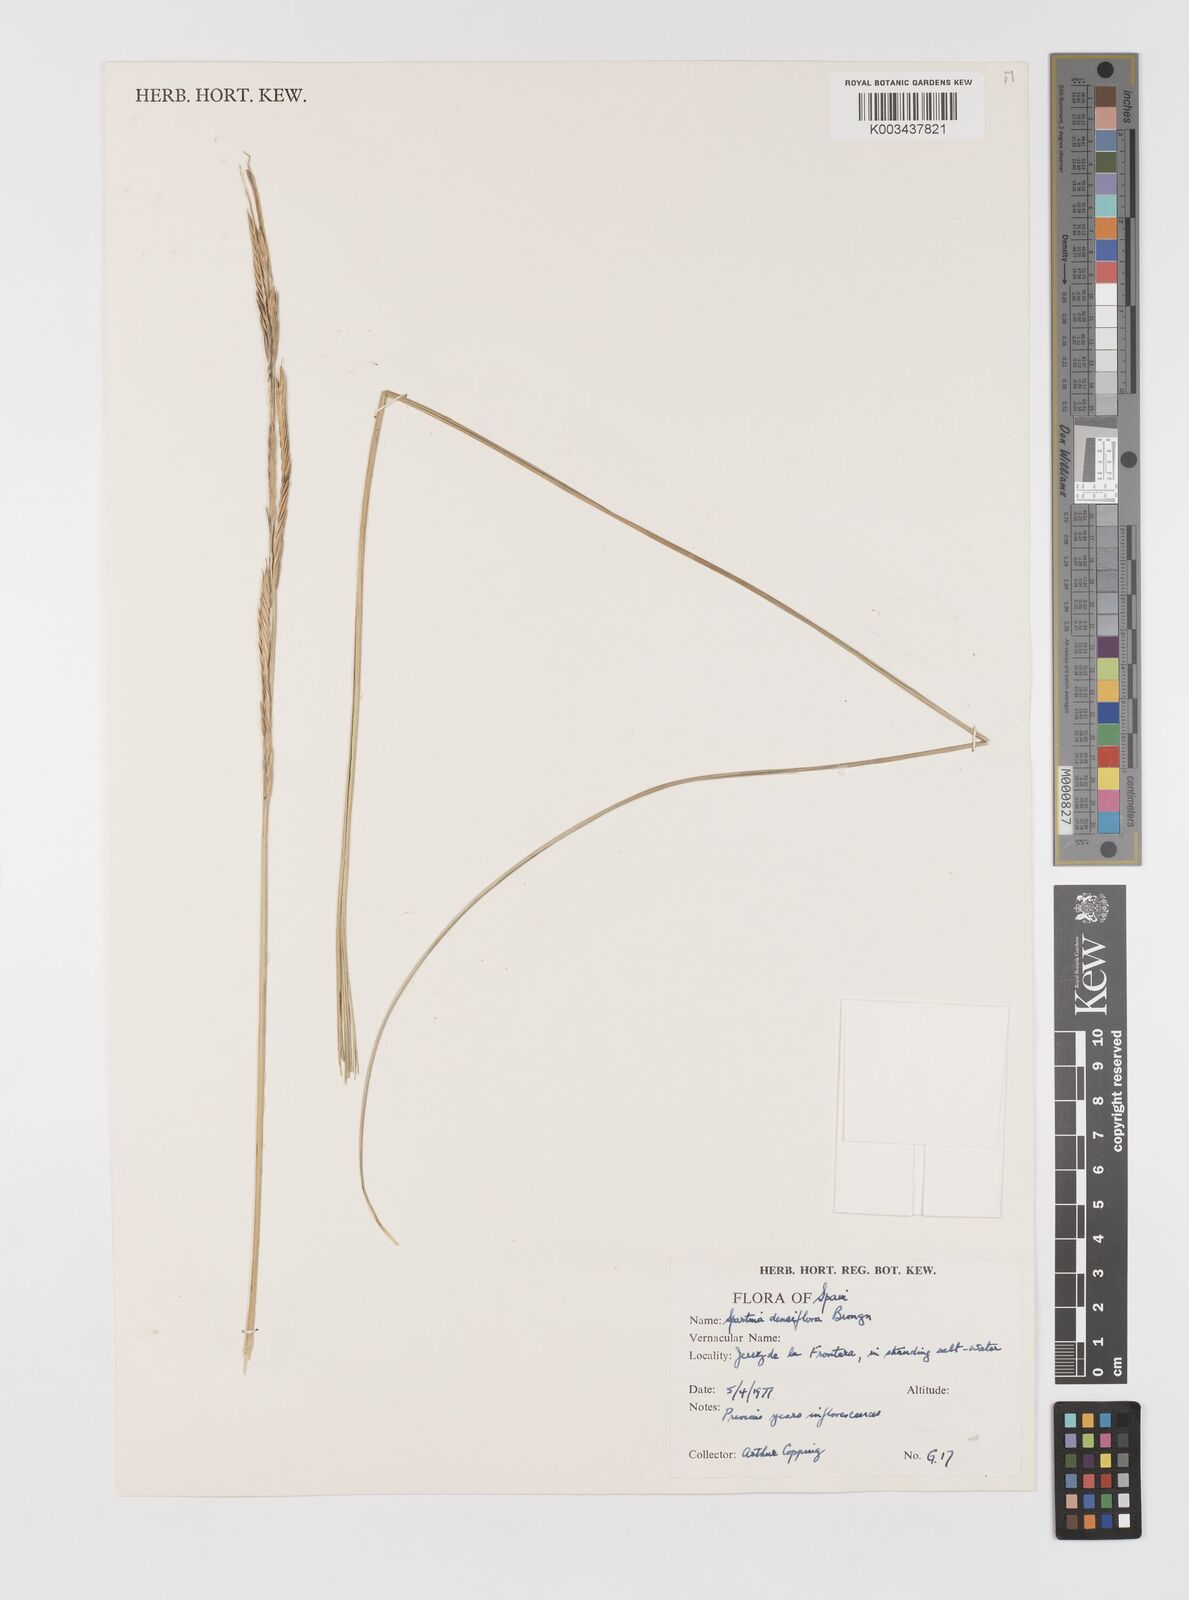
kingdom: Plantae
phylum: Tracheophyta
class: Liliopsida
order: Poales
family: Poaceae
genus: Sporobolus
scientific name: Sporobolus montevidensis
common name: Montevideo dropseed
